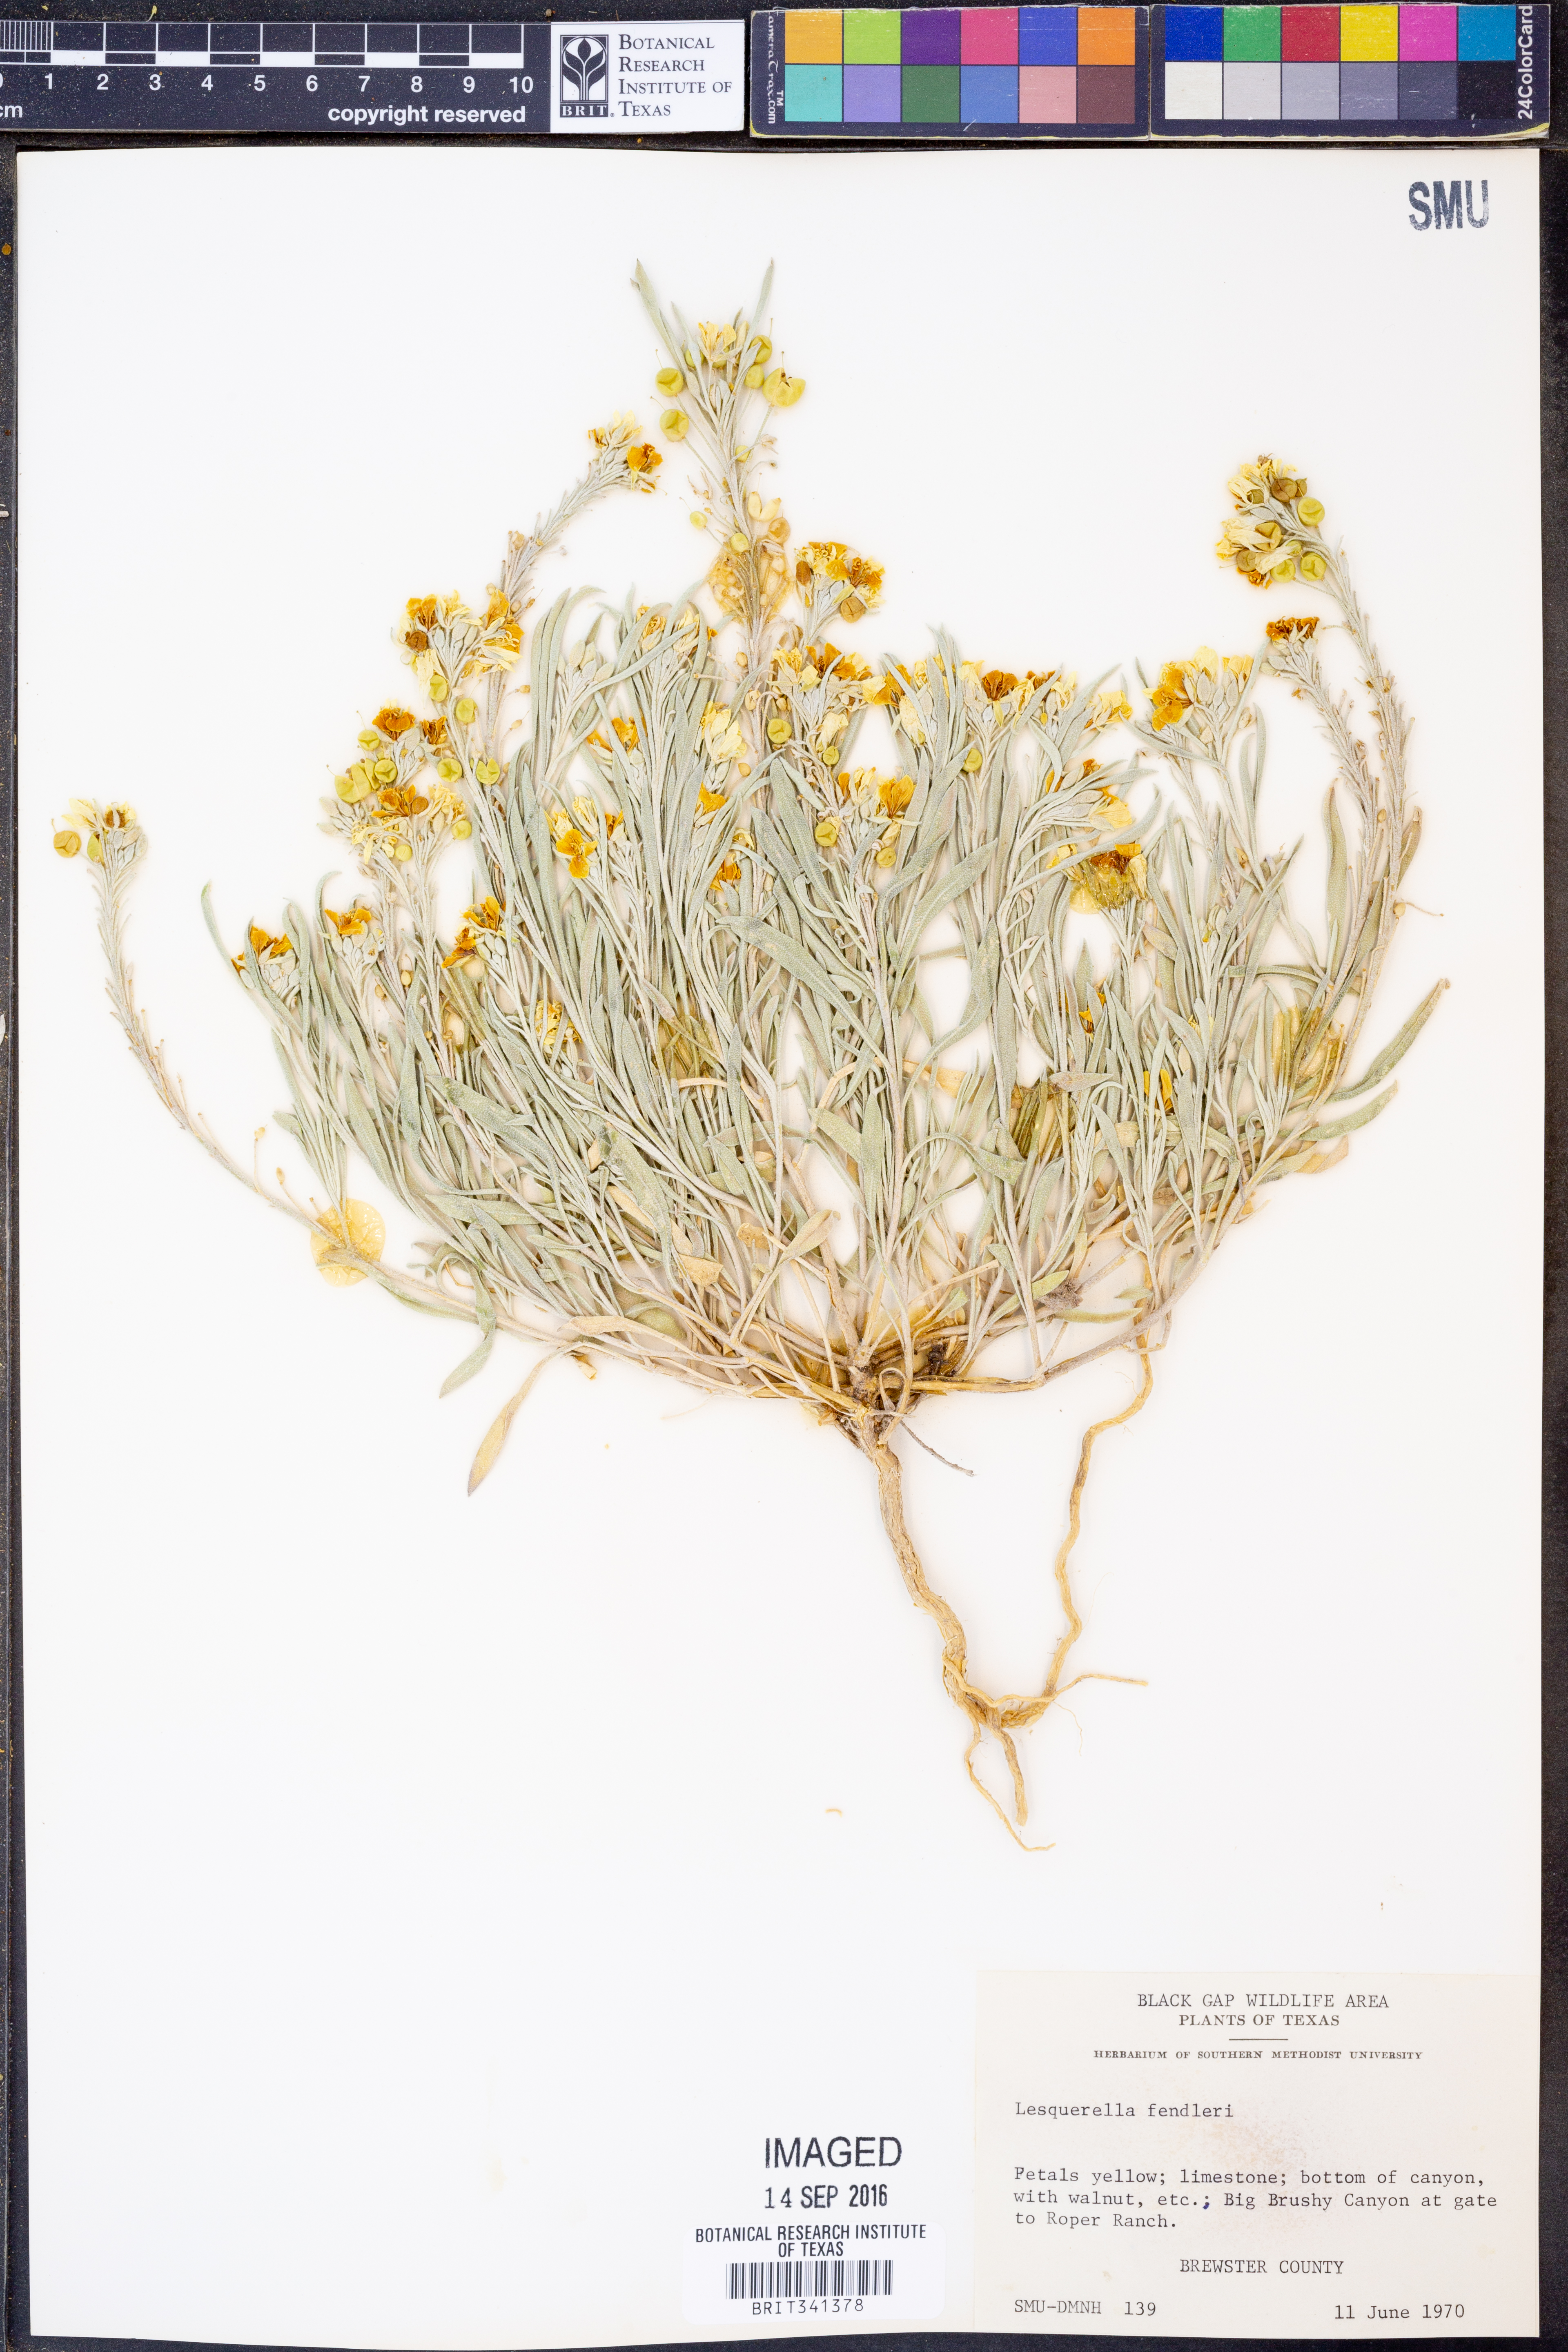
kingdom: Plantae
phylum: Tracheophyta
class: Magnoliopsida
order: Brassicales
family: Brassicaceae
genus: Physaria
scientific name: Physaria fendleri
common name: Fendler's bladderpod
